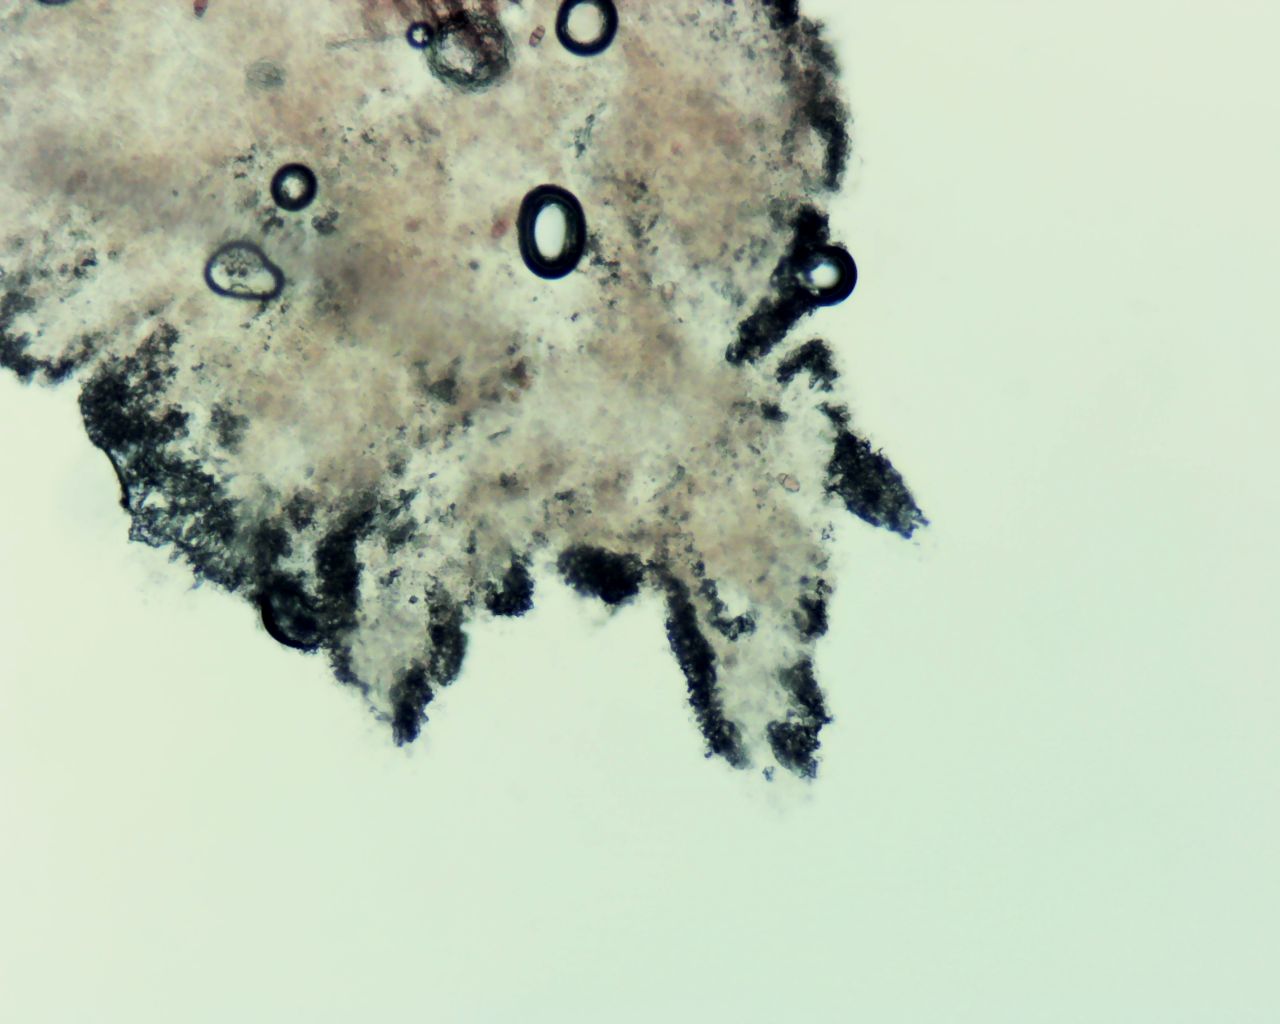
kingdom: Fungi
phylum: Basidiomycota
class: Agaricomycetes
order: Trechisporales
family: Sistotremataceae
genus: Trechispora
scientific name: Trechispora nivea
